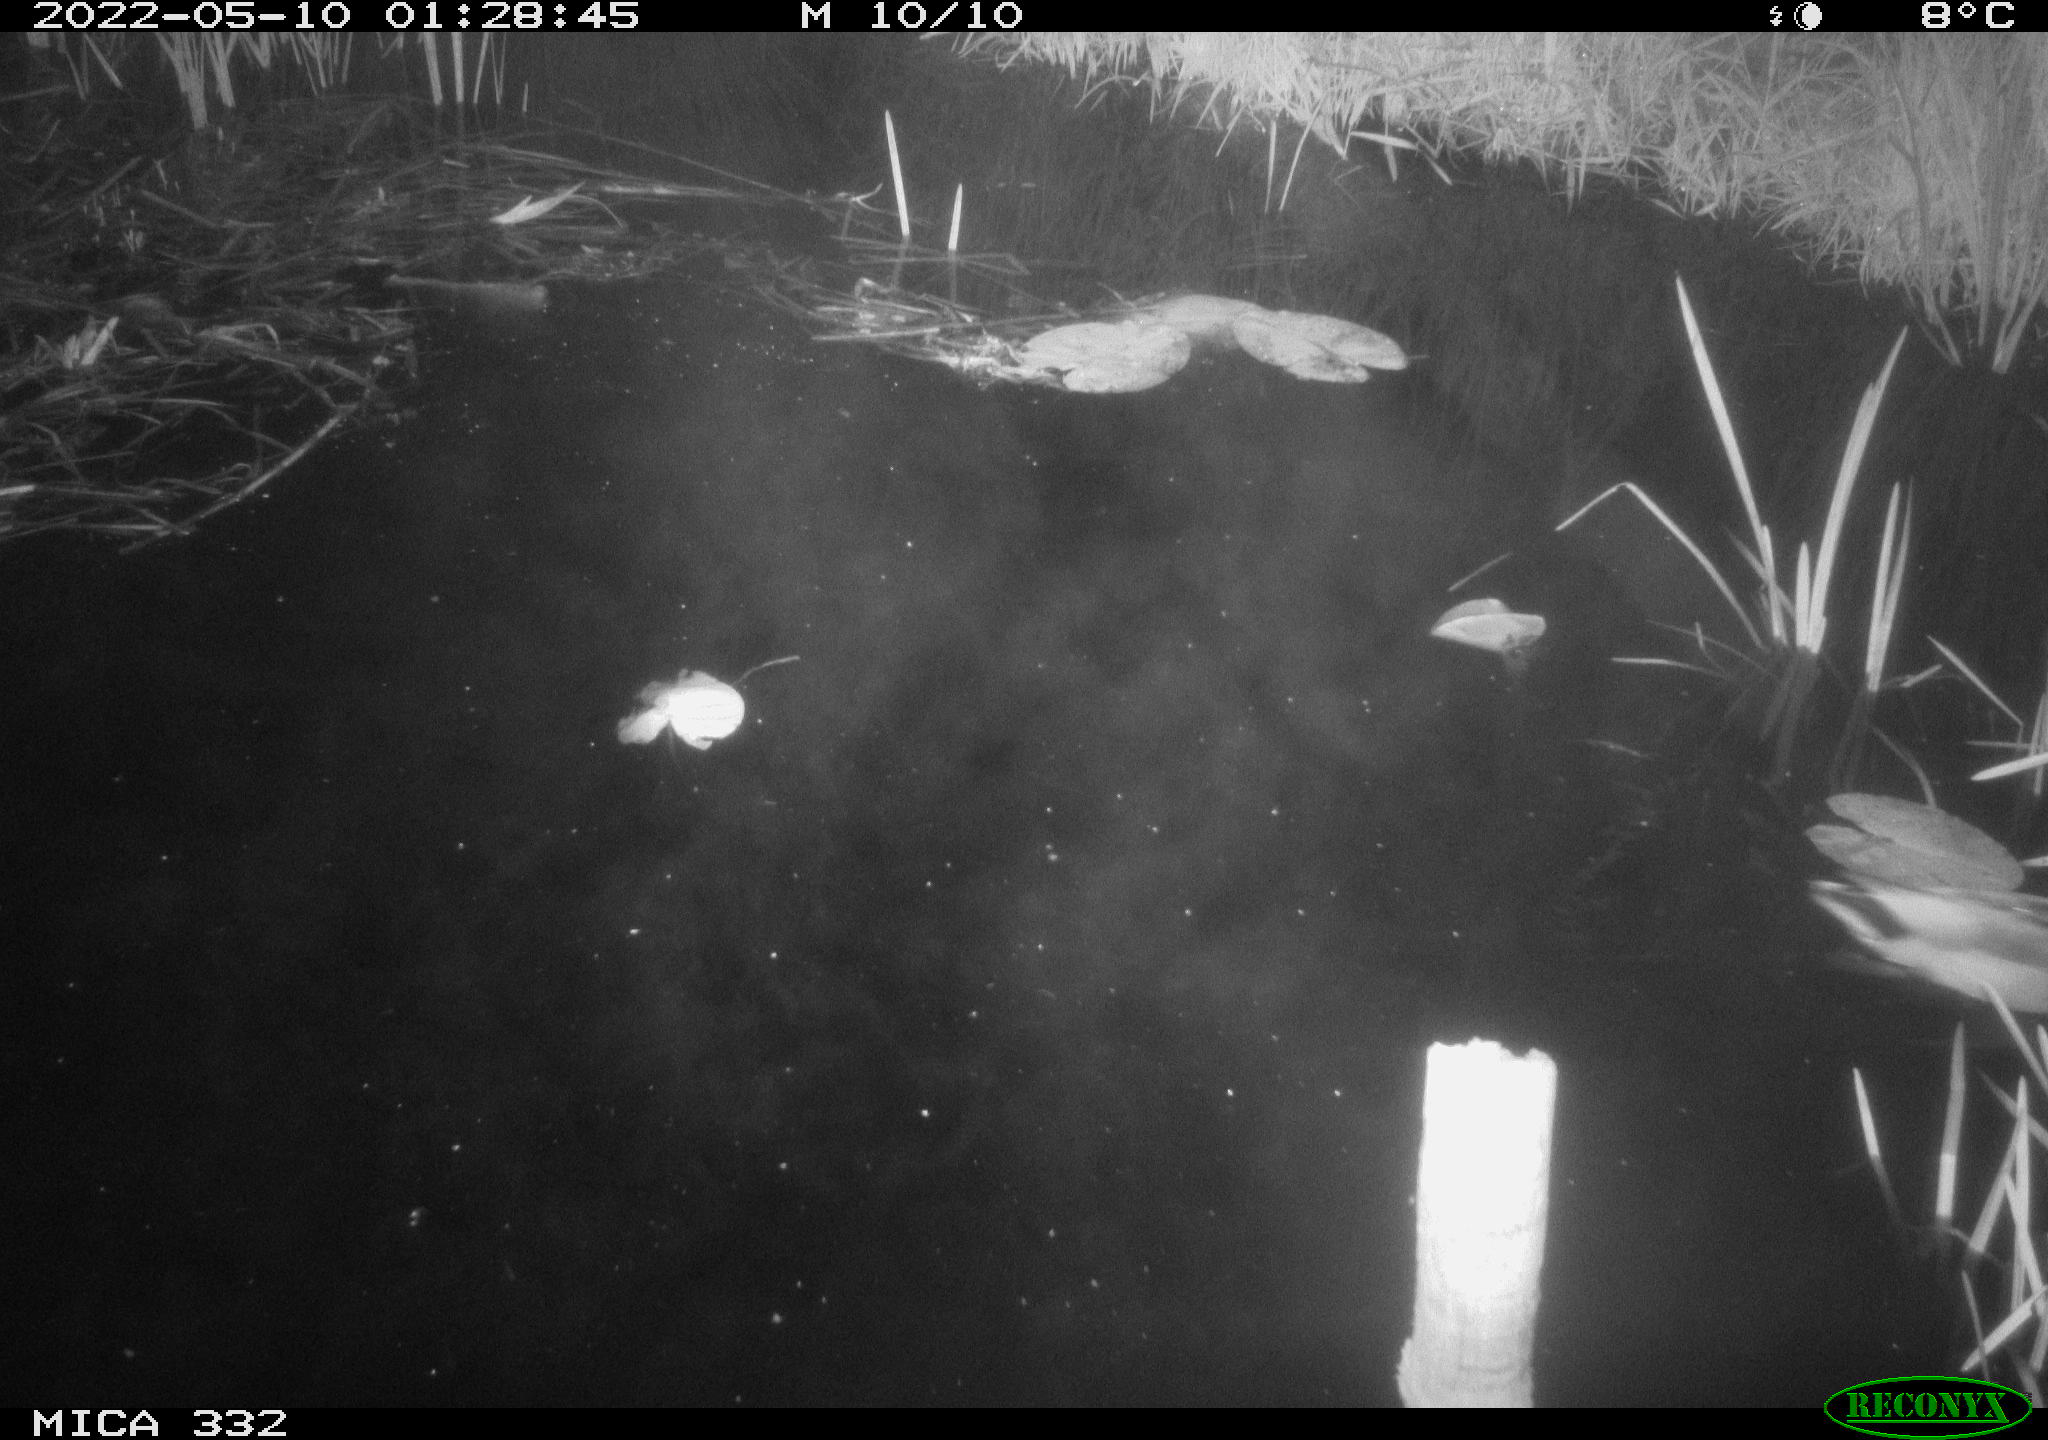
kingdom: Animalia
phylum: Chordata
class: Aves
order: Anseriformes
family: Anatidae
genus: Anas
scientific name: Anas platyrhynchos
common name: Mallard
